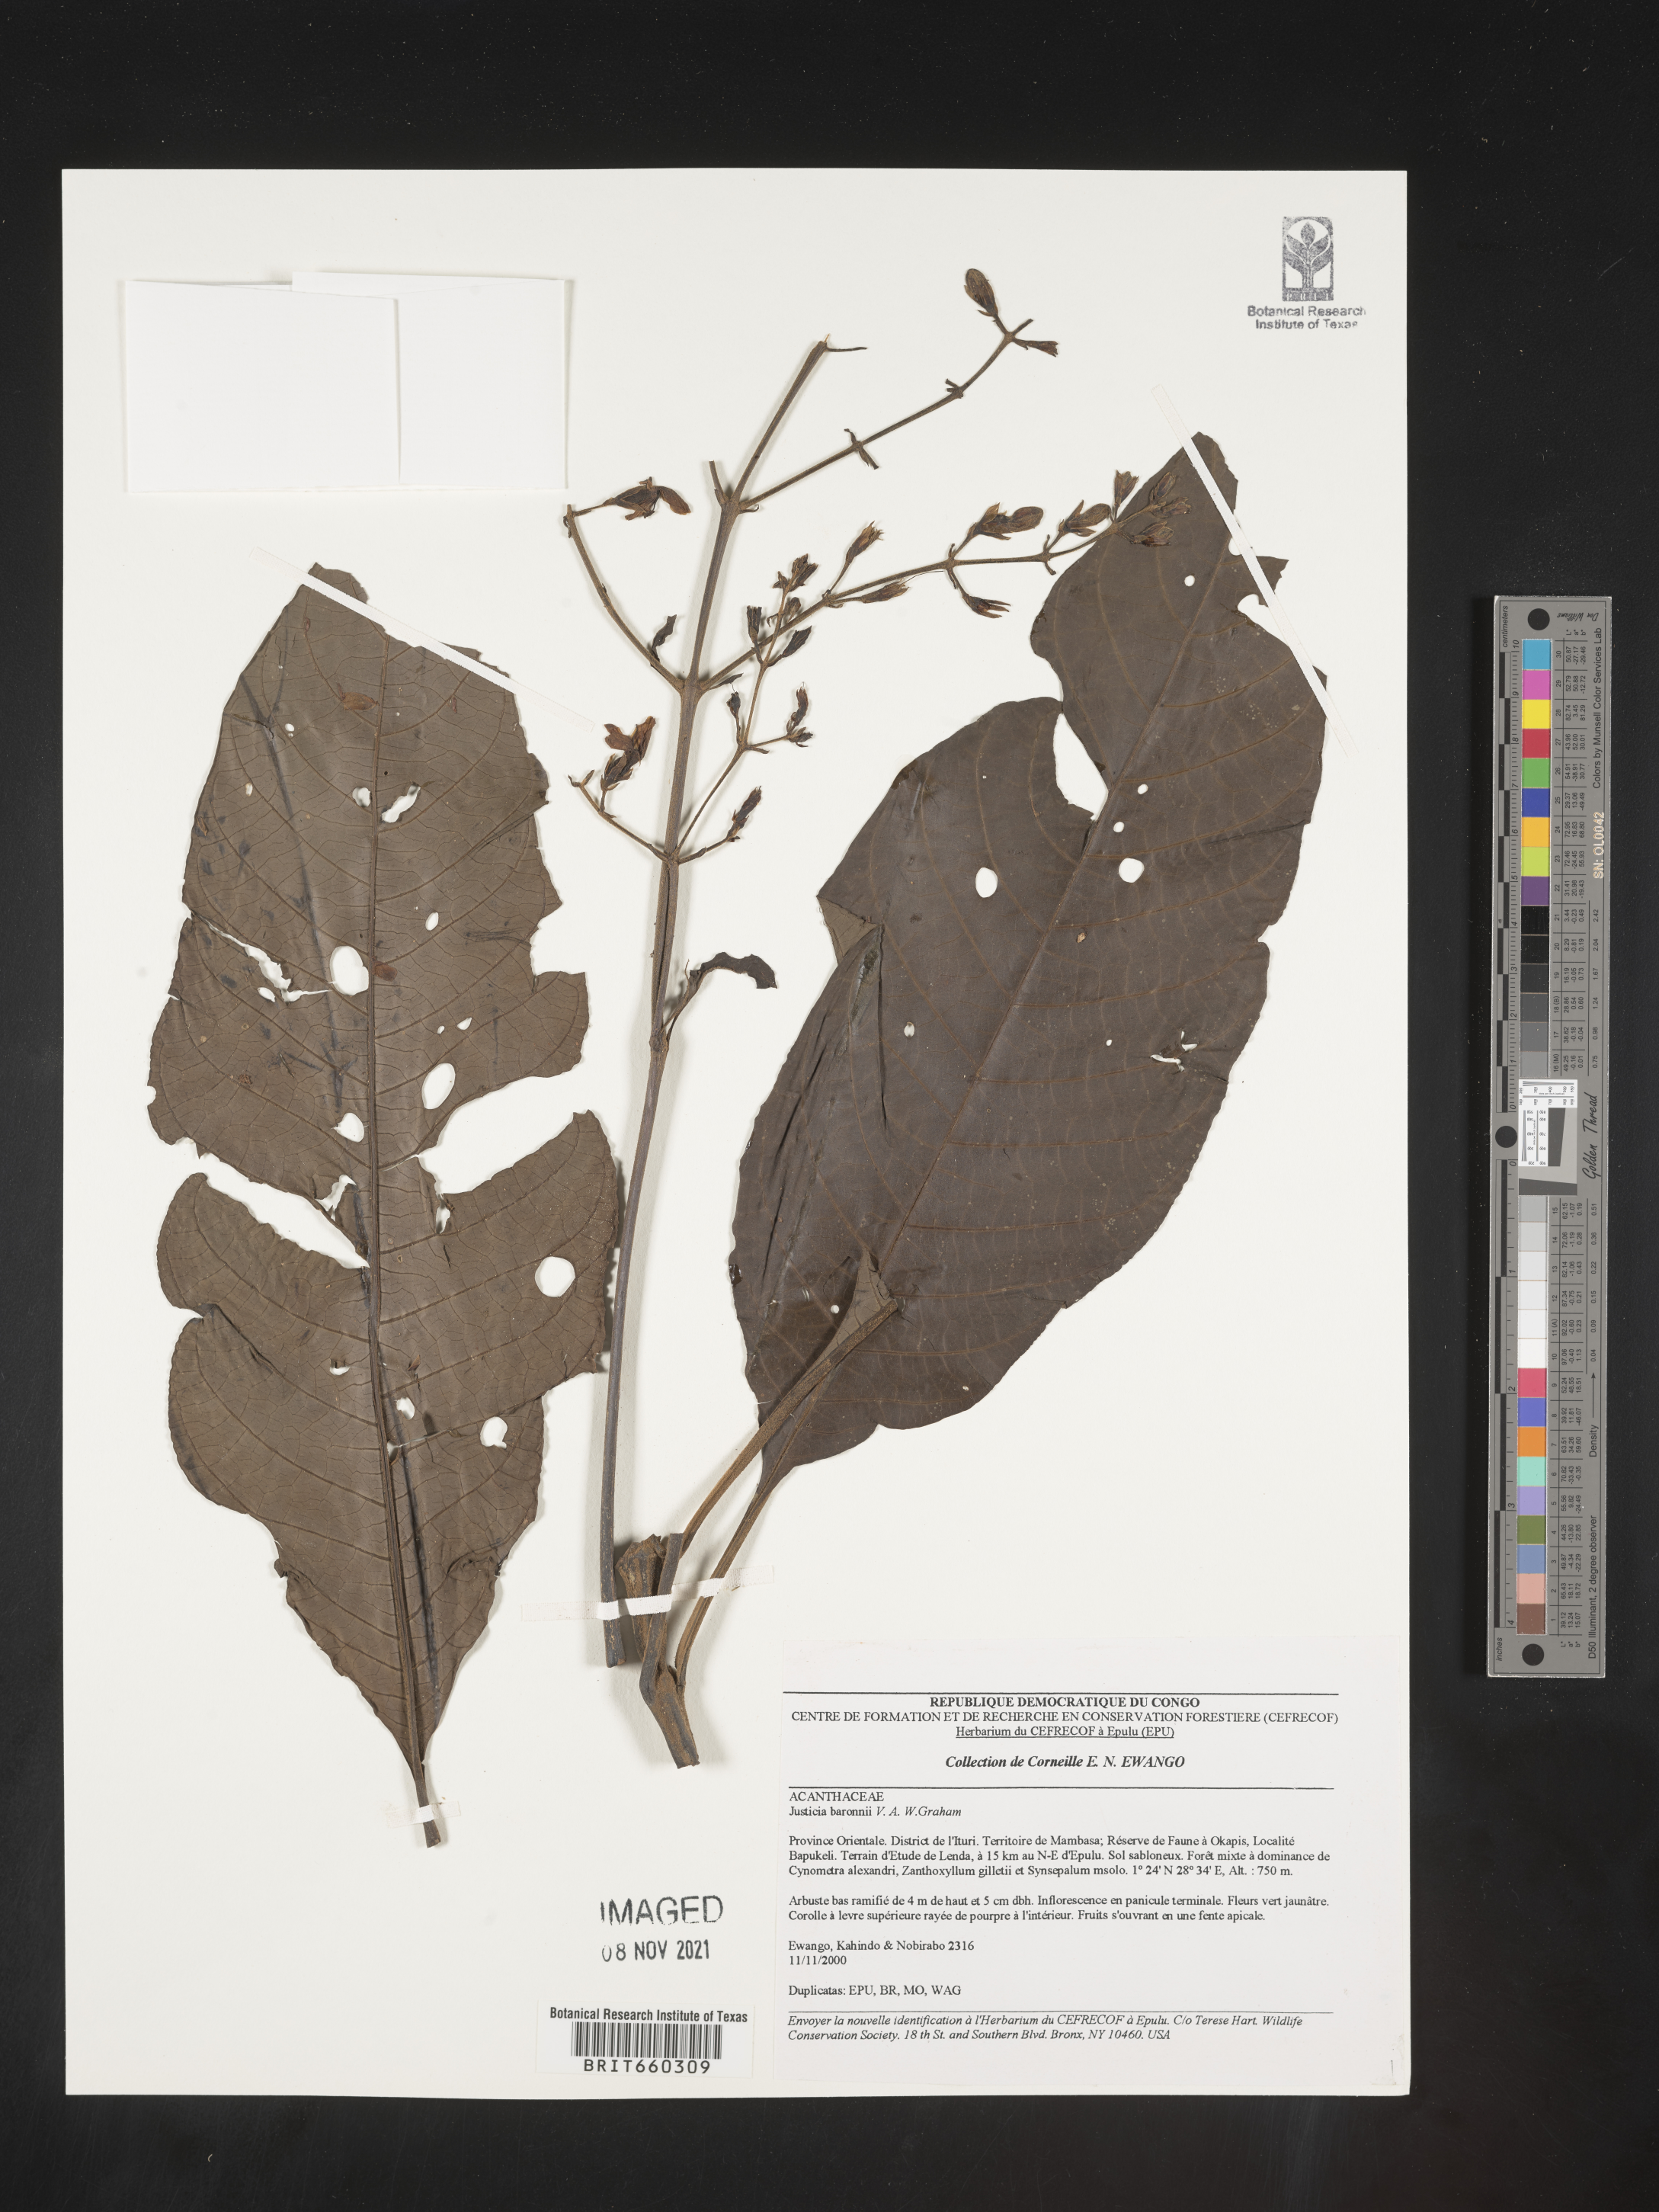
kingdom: Plantae
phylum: Tracheophyta
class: Magnoliopsida
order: Lamiales
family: Acanthaceae
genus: Justicia
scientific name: Justicia
